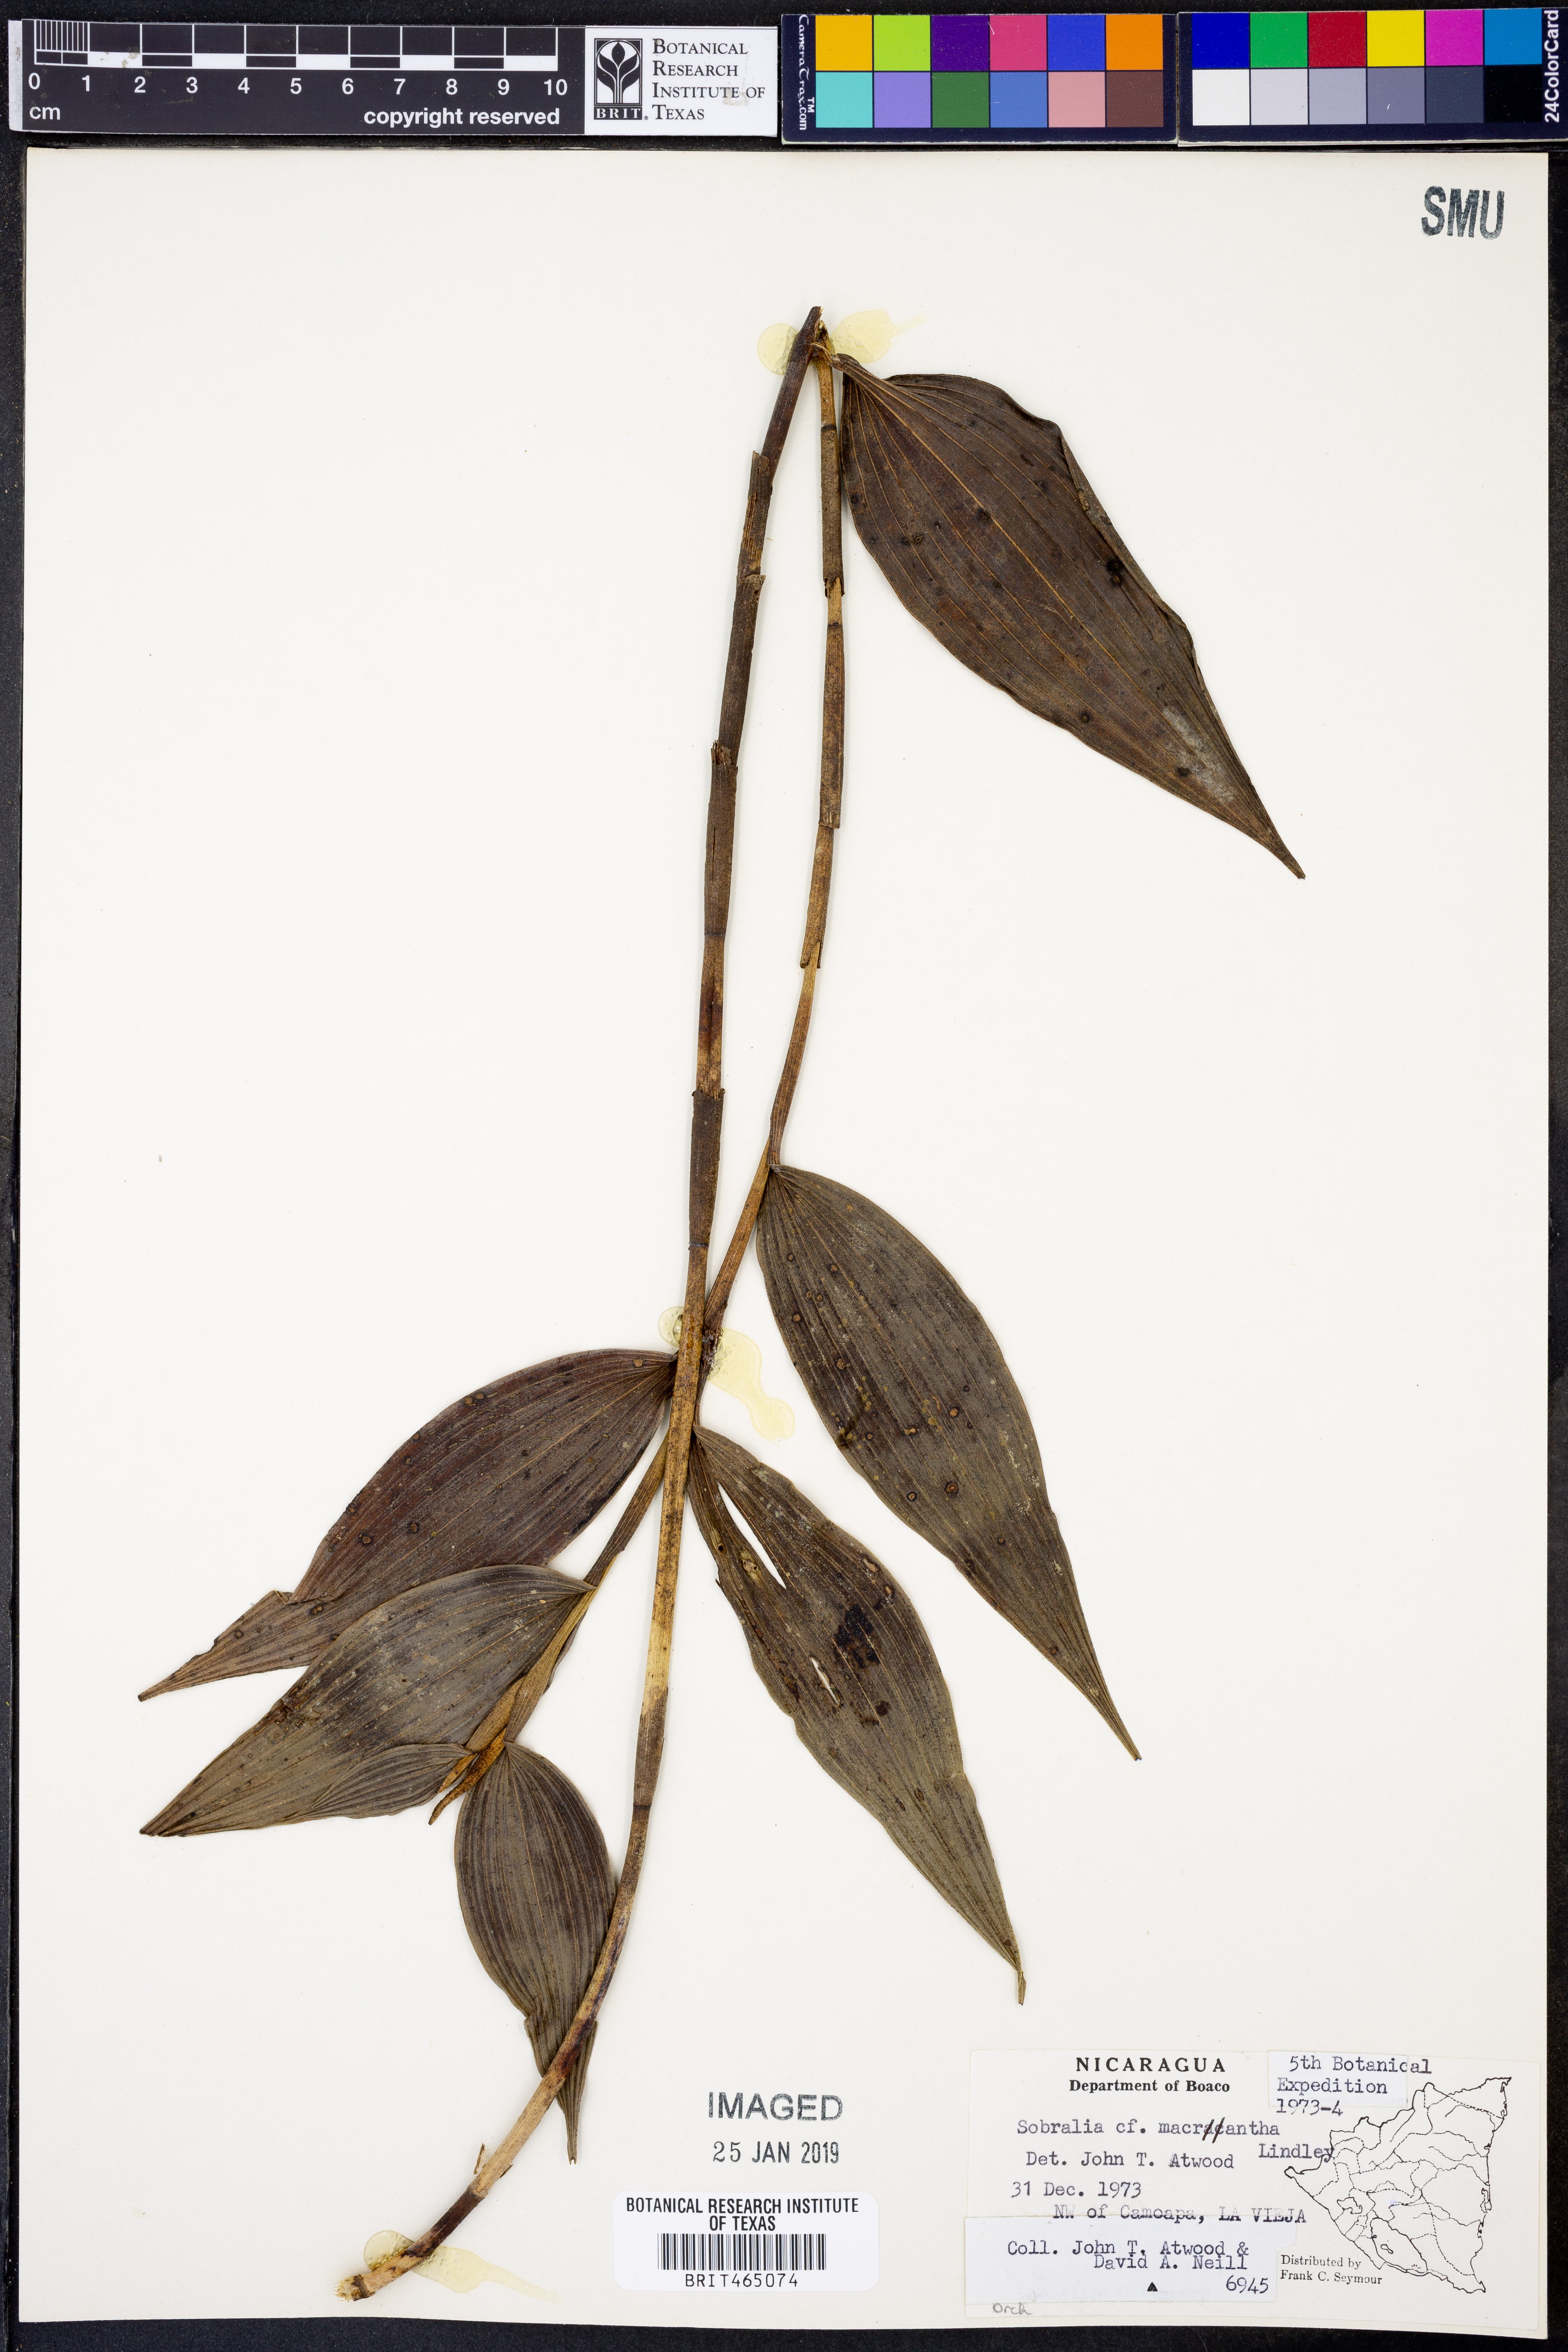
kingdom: Plantae
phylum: Tracheophyta
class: Liliopsida
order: Asparagales
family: Orchidaceae
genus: Sobralia
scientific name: Sobralia macrantha
